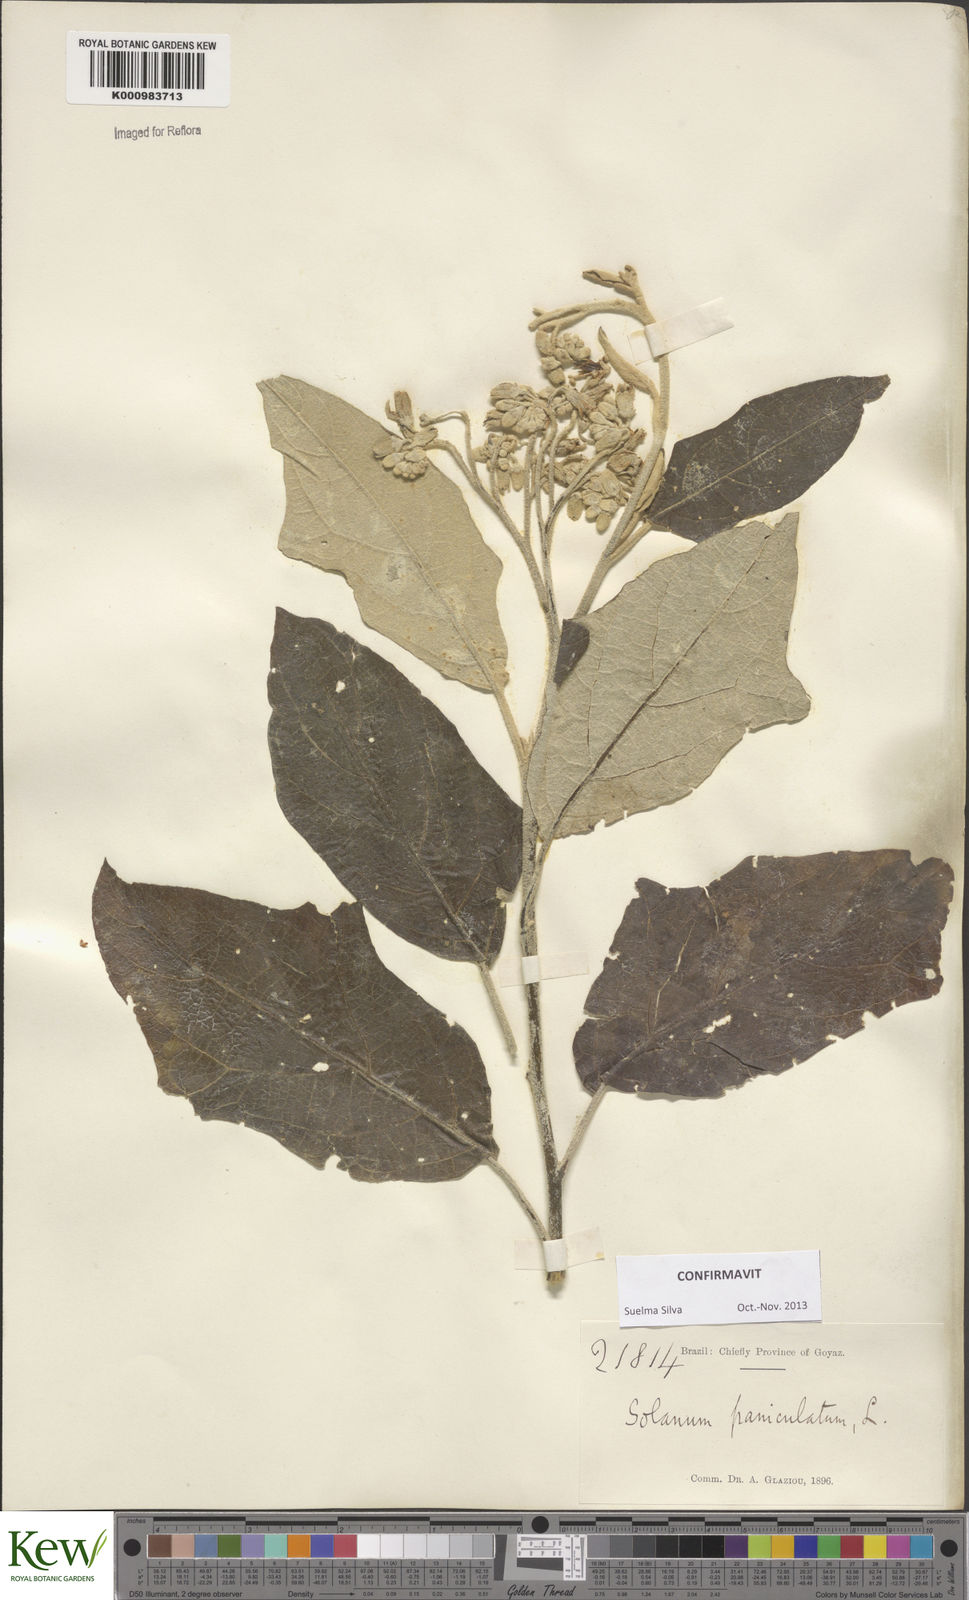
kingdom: Plantae
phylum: Tracheophyta
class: Magnoliopsida
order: Solanales
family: Solanaceae
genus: Solanum
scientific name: Solanum paniculatum
